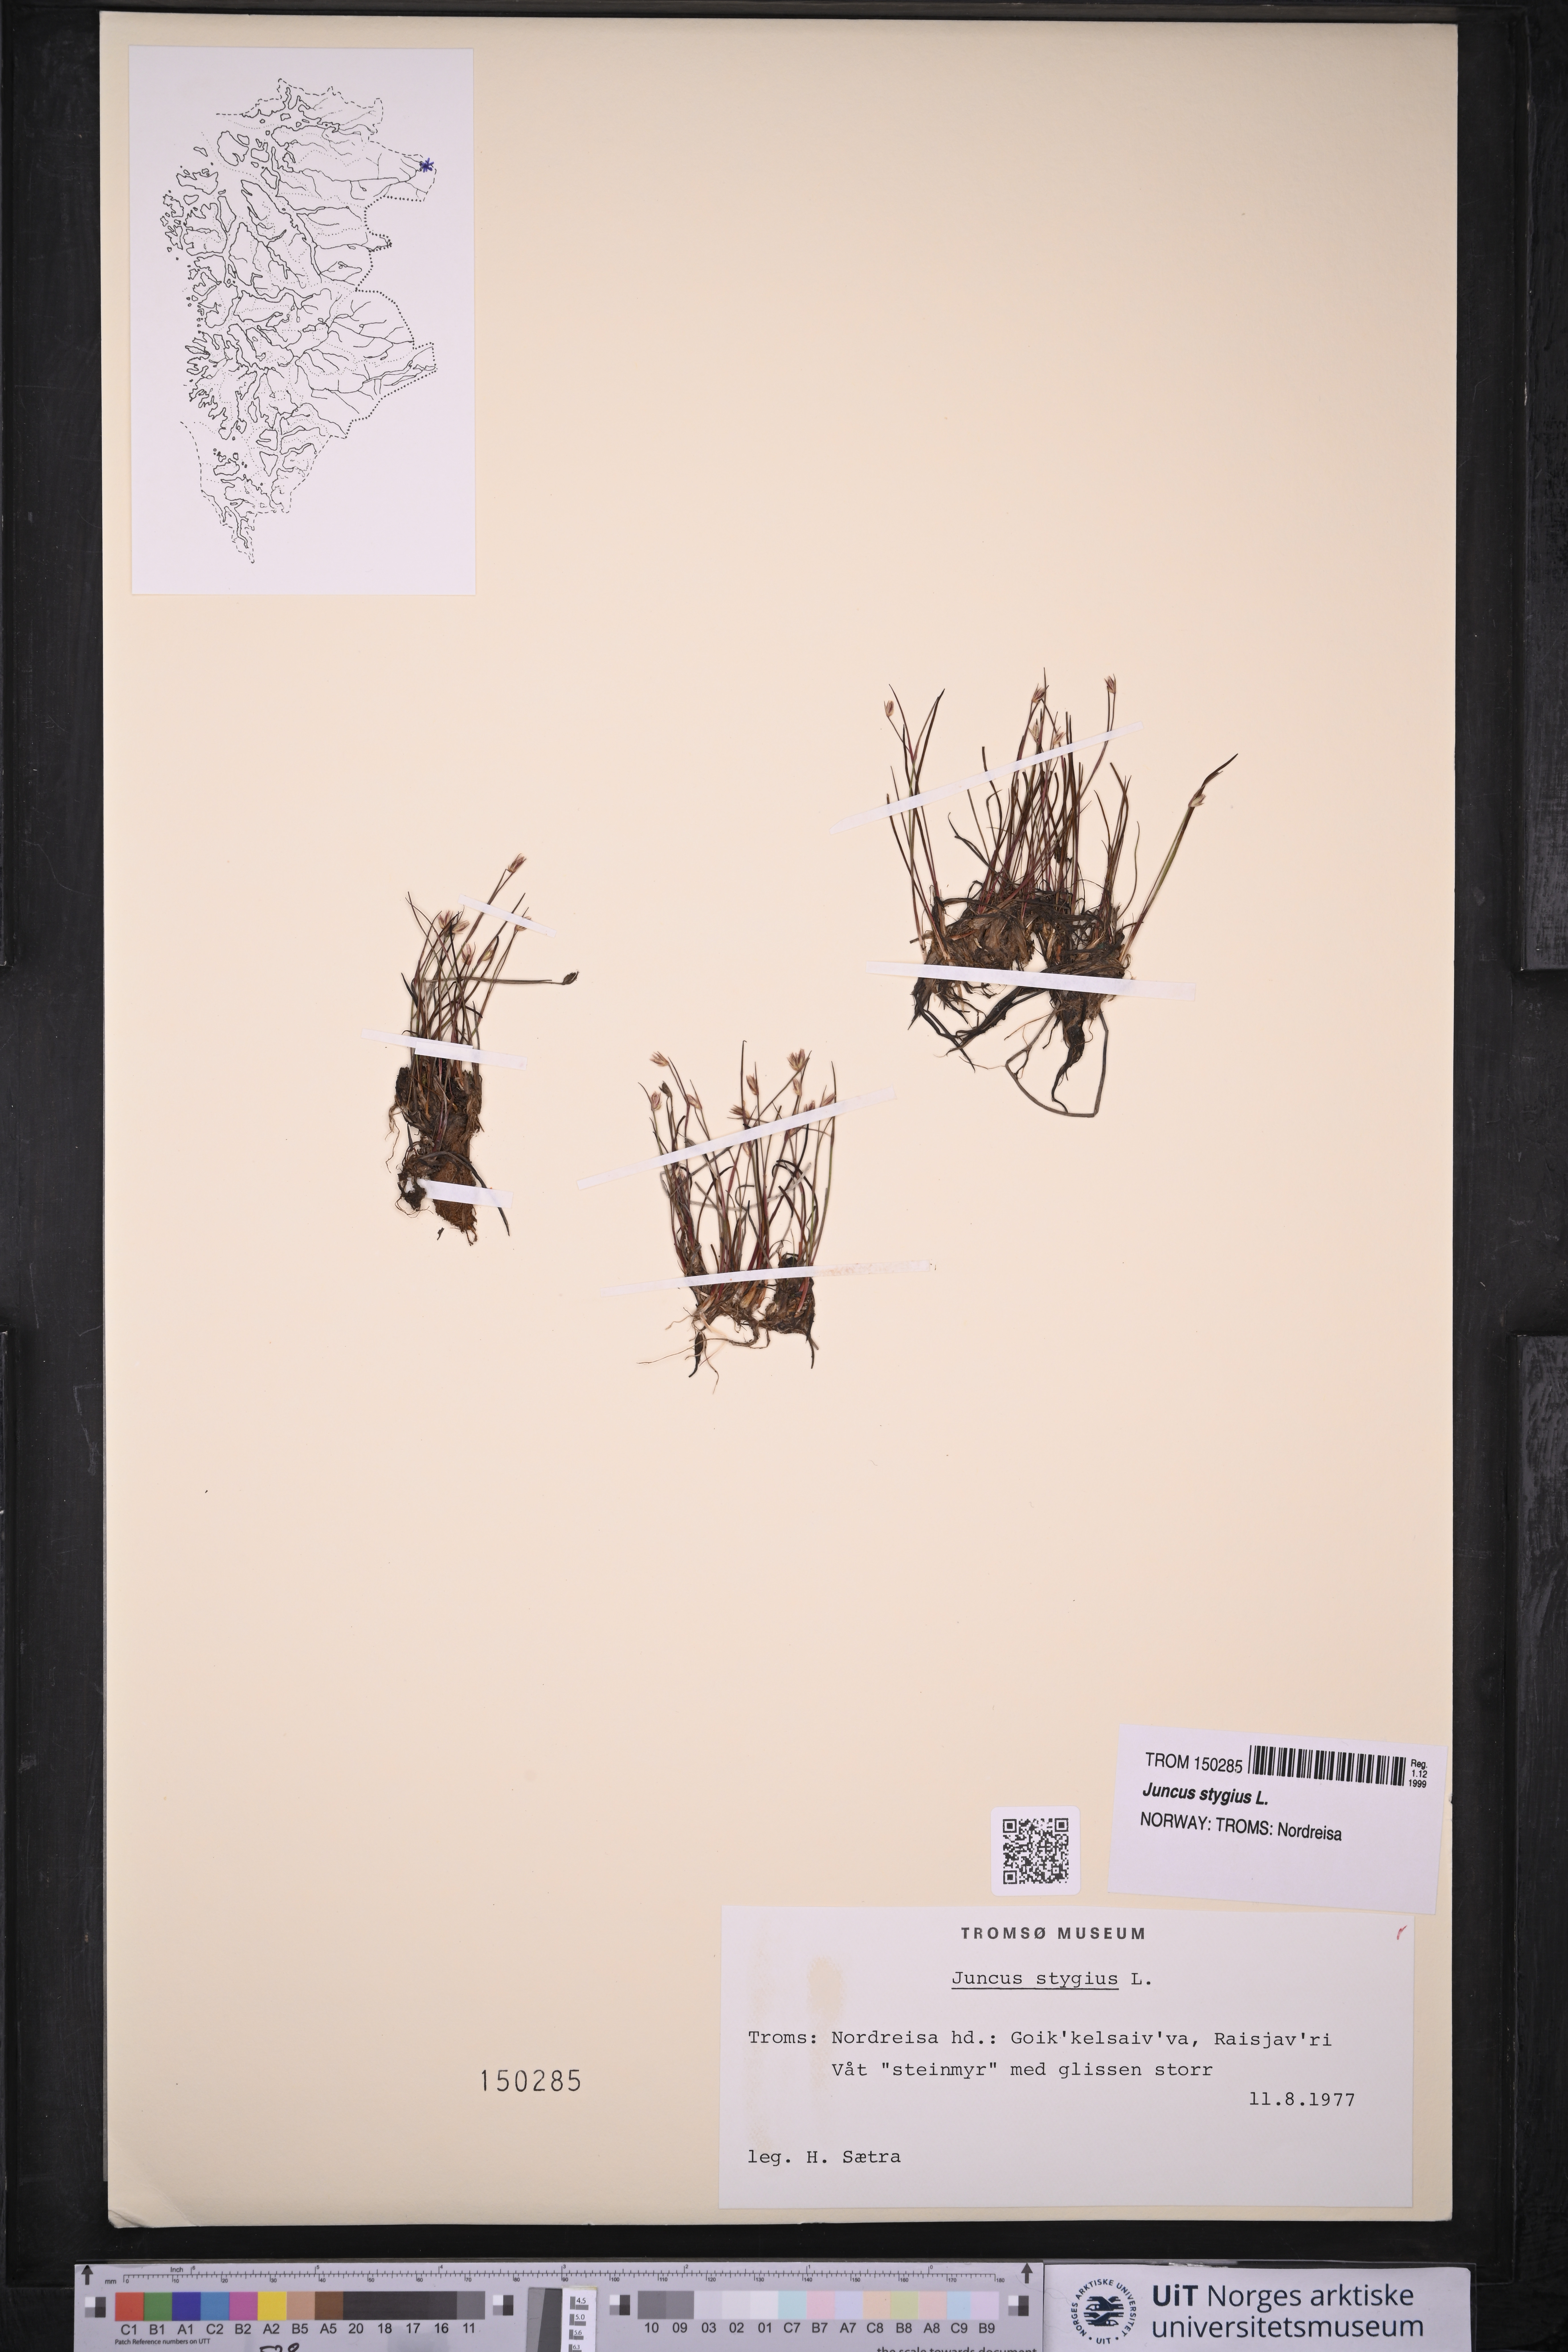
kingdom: Plantae
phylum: Tracheophyta
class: Liliopsida
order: Poales
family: Juncaceae
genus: Juncus
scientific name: Juncus stygius
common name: Bog rush
